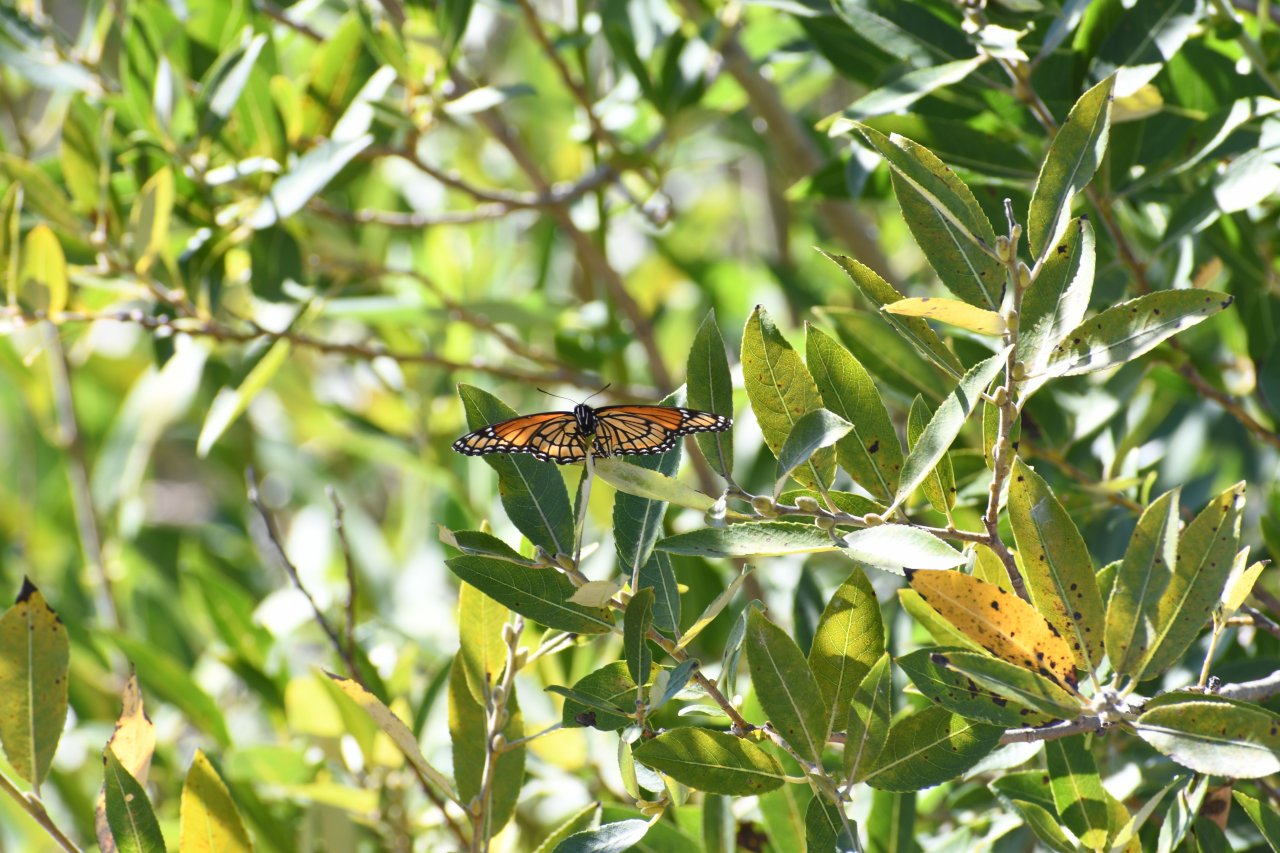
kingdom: Animalia
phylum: Arthropoda
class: Insecta
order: Lepidoptera
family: Nymphalidae
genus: Limenitis
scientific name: Limenitis archippus
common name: Viceroy
